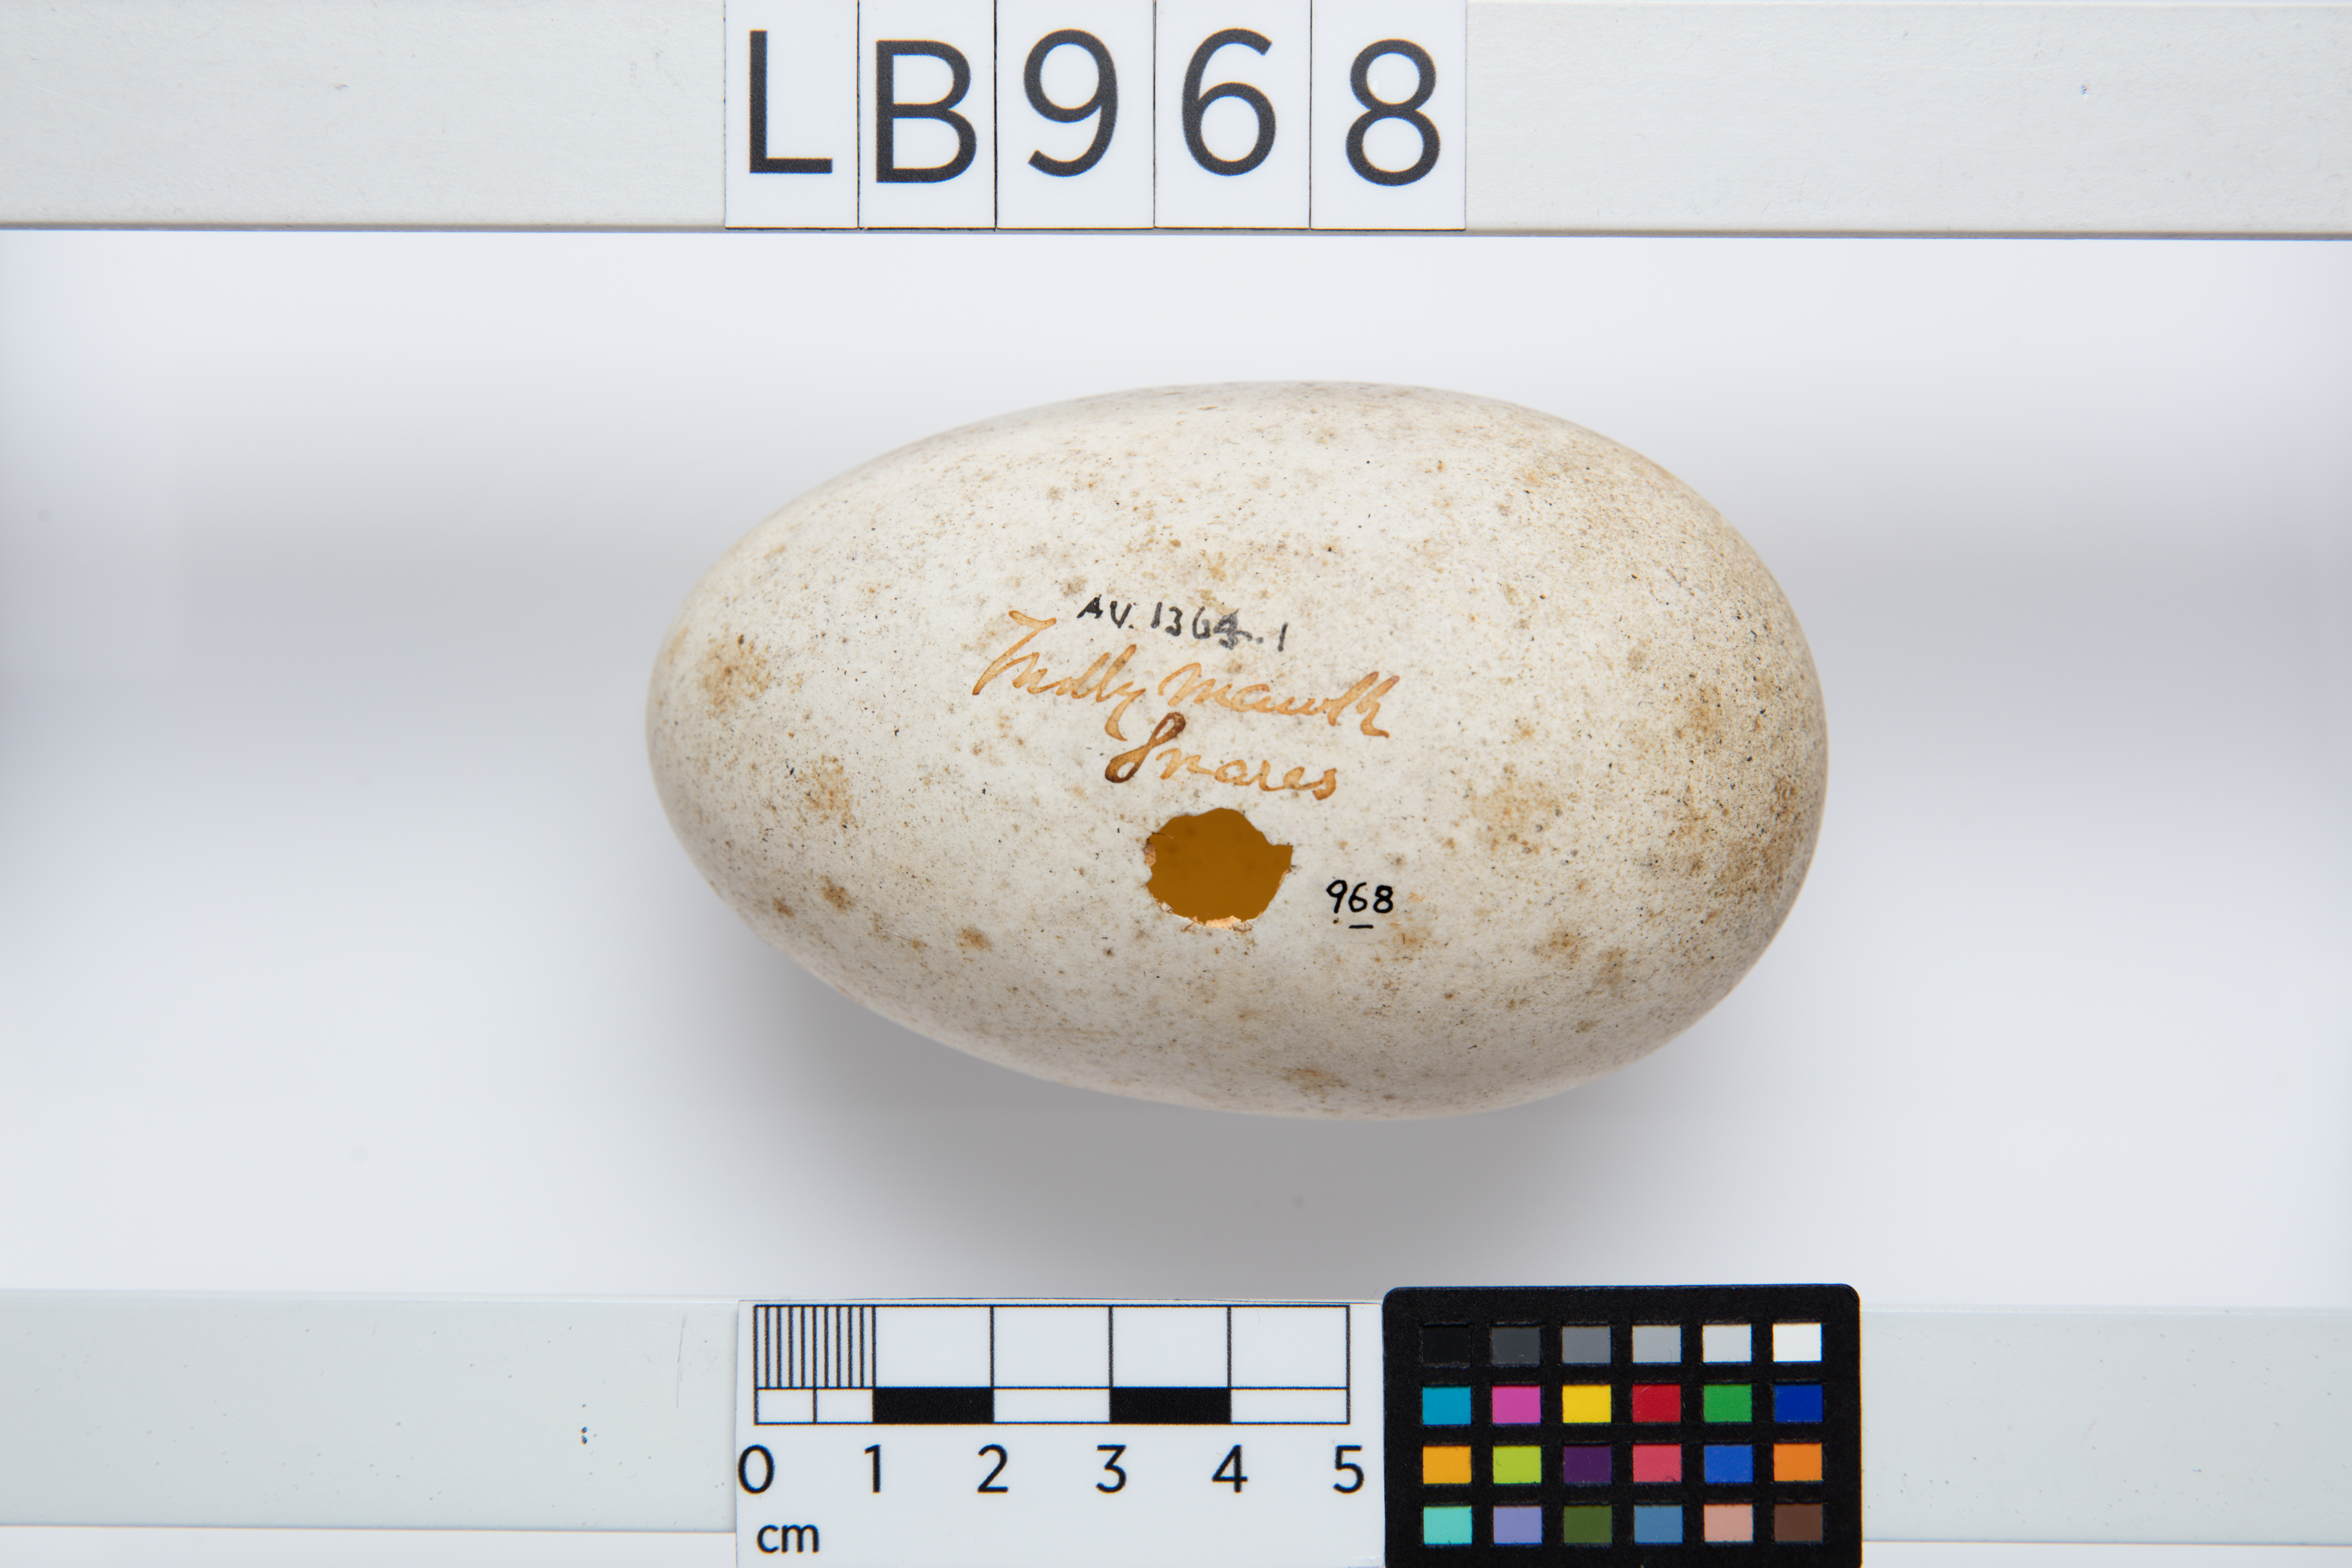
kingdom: Animalia
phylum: Chordata
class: Aves
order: Procellariiformes
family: Diomedeidae
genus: Thalassarche
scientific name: Thalassarche bulleri
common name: Buller's albatross
